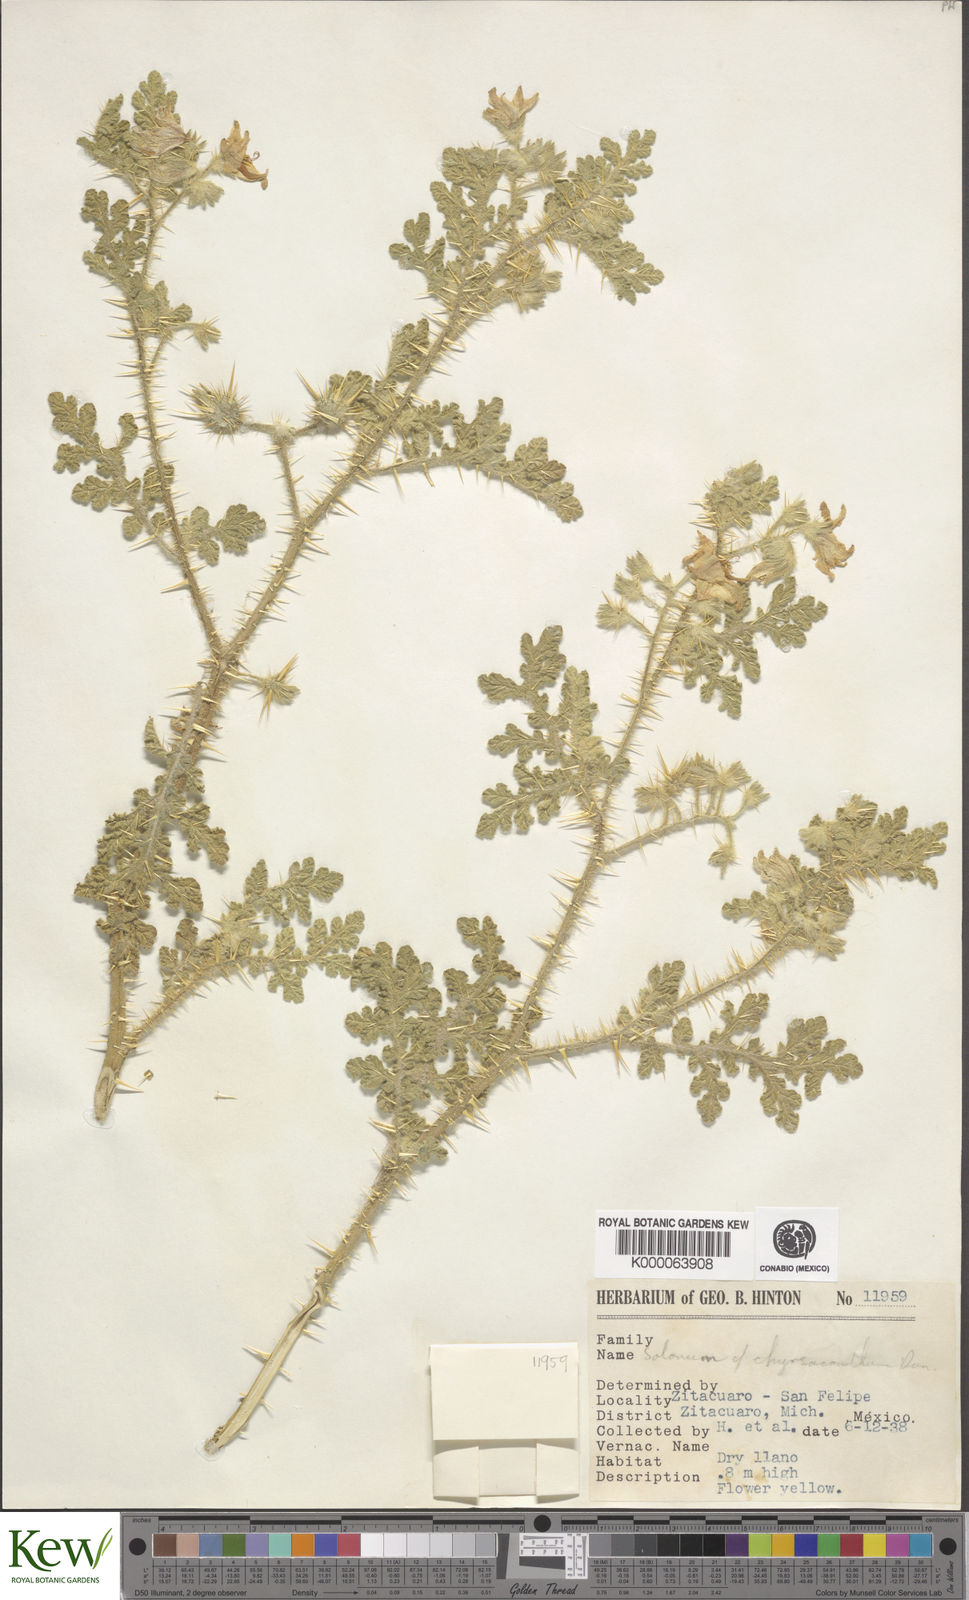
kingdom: Plantae
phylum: Tracheophyta
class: Magnoliopsida
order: Solanales
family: Solanaceae
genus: Solanum
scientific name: Solanum angustifolium
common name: Buffalobur nightshade
